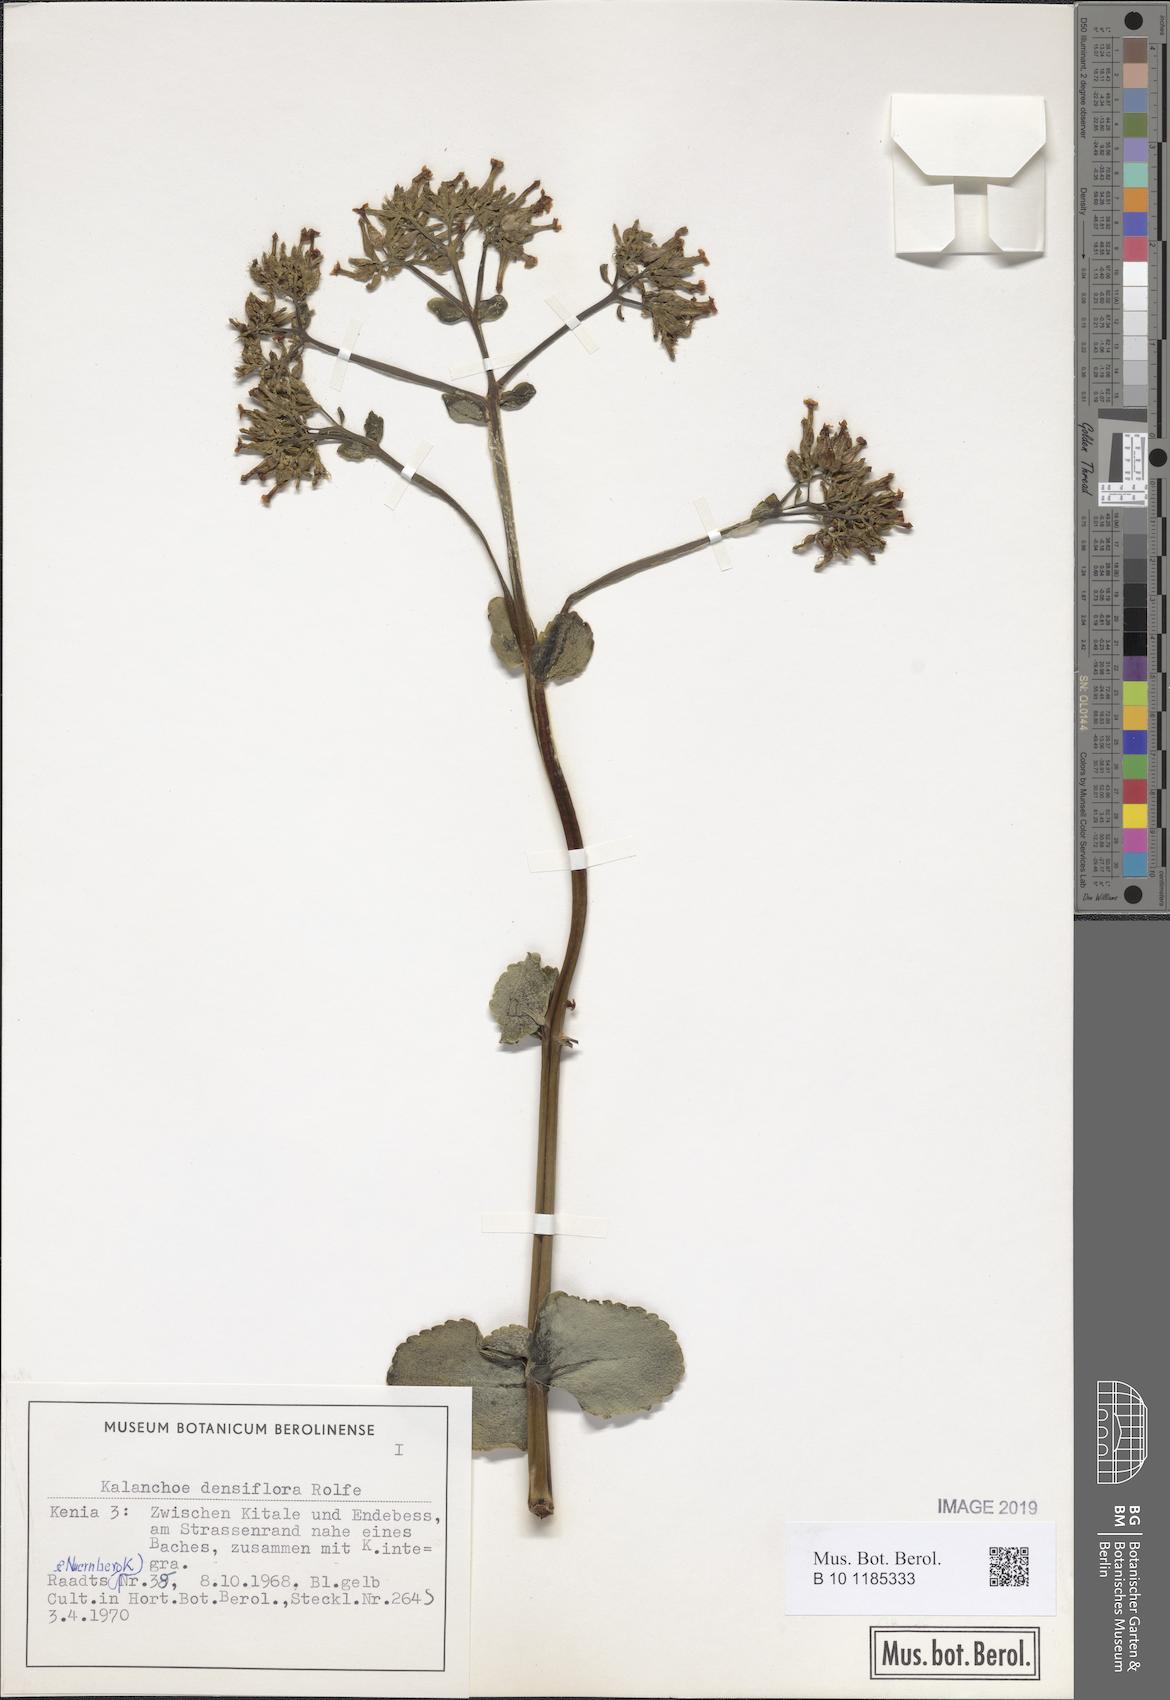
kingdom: Plantae
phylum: Tracheophyta
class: Magnoliopsida
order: Saxifragales
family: Crassulaceae
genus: Kalanchoe
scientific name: Kalanchoe densiflora
